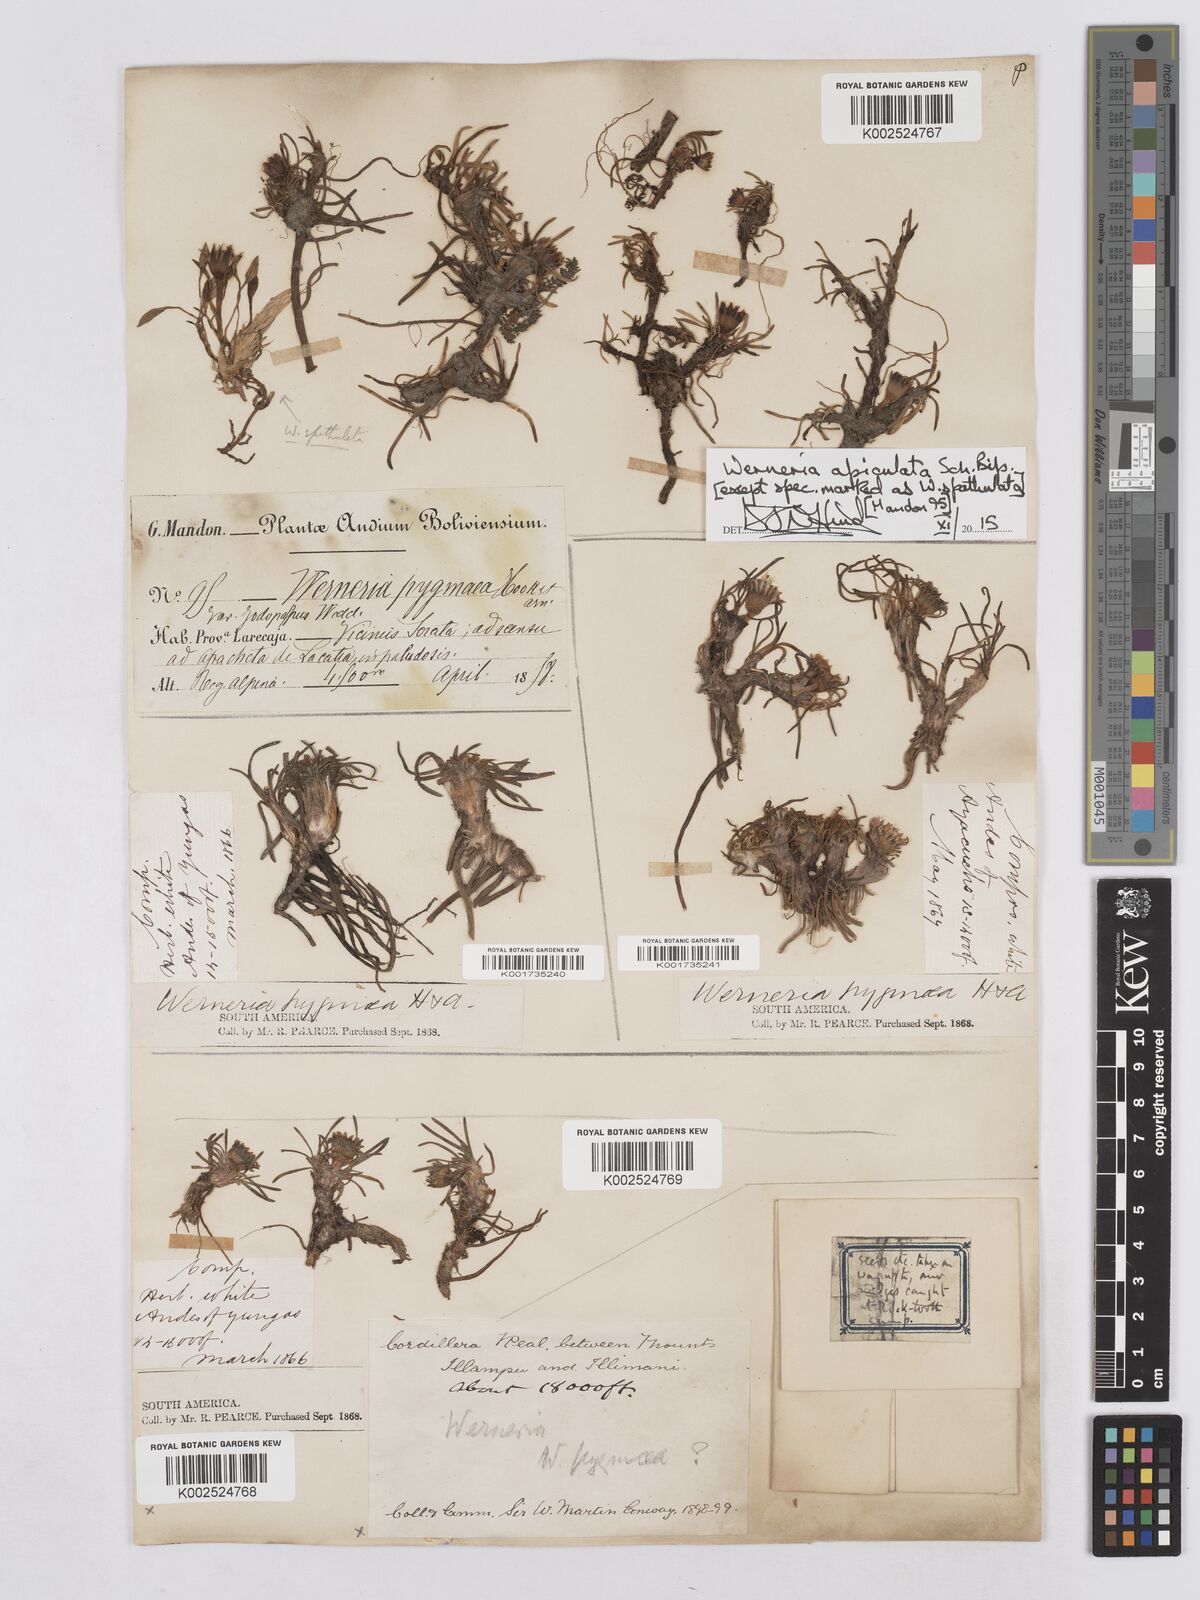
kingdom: Plantae
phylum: Tracheophyta
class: Magnoliopsida
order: Asterales
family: Asteraceae
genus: Rockhausenia
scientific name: Rockhausenia apiculata
